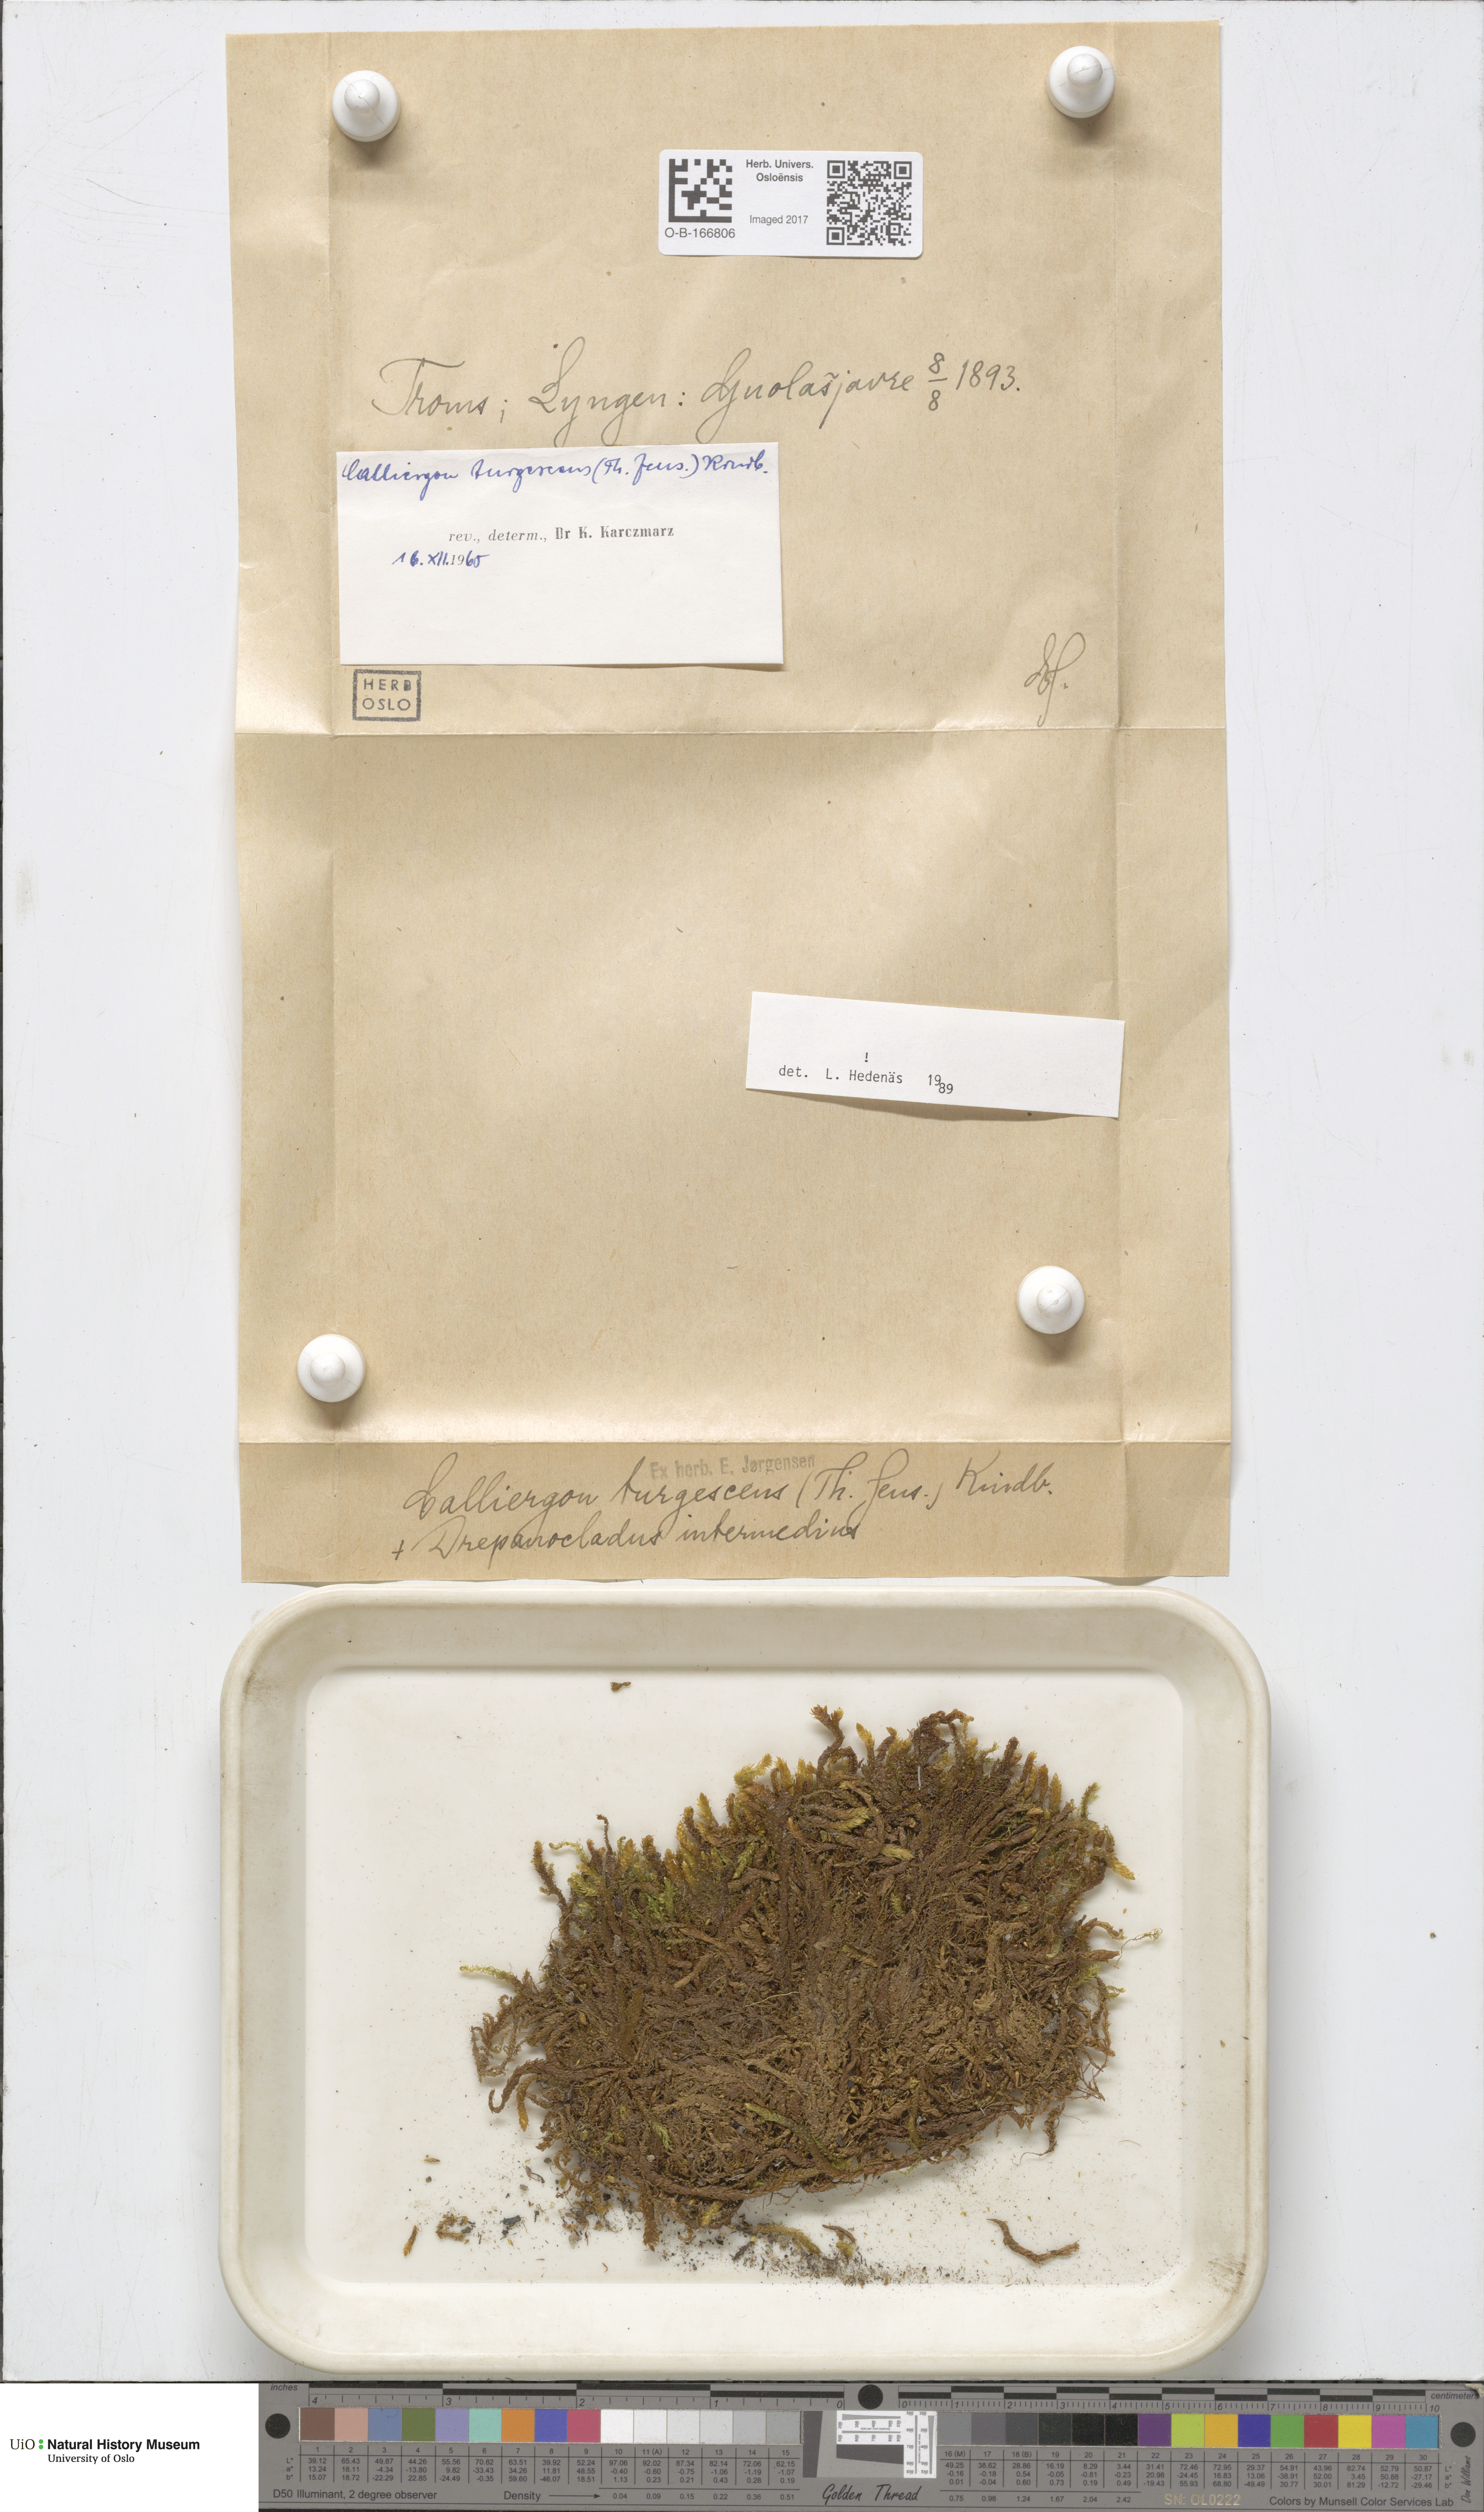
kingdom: Plantae
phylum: Bryophyta
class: Bryopsida
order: Hypnales
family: Amblystegiaceae
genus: Drepanocladus
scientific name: Drepanocladus turgescens
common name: Large yellow feather-moss
